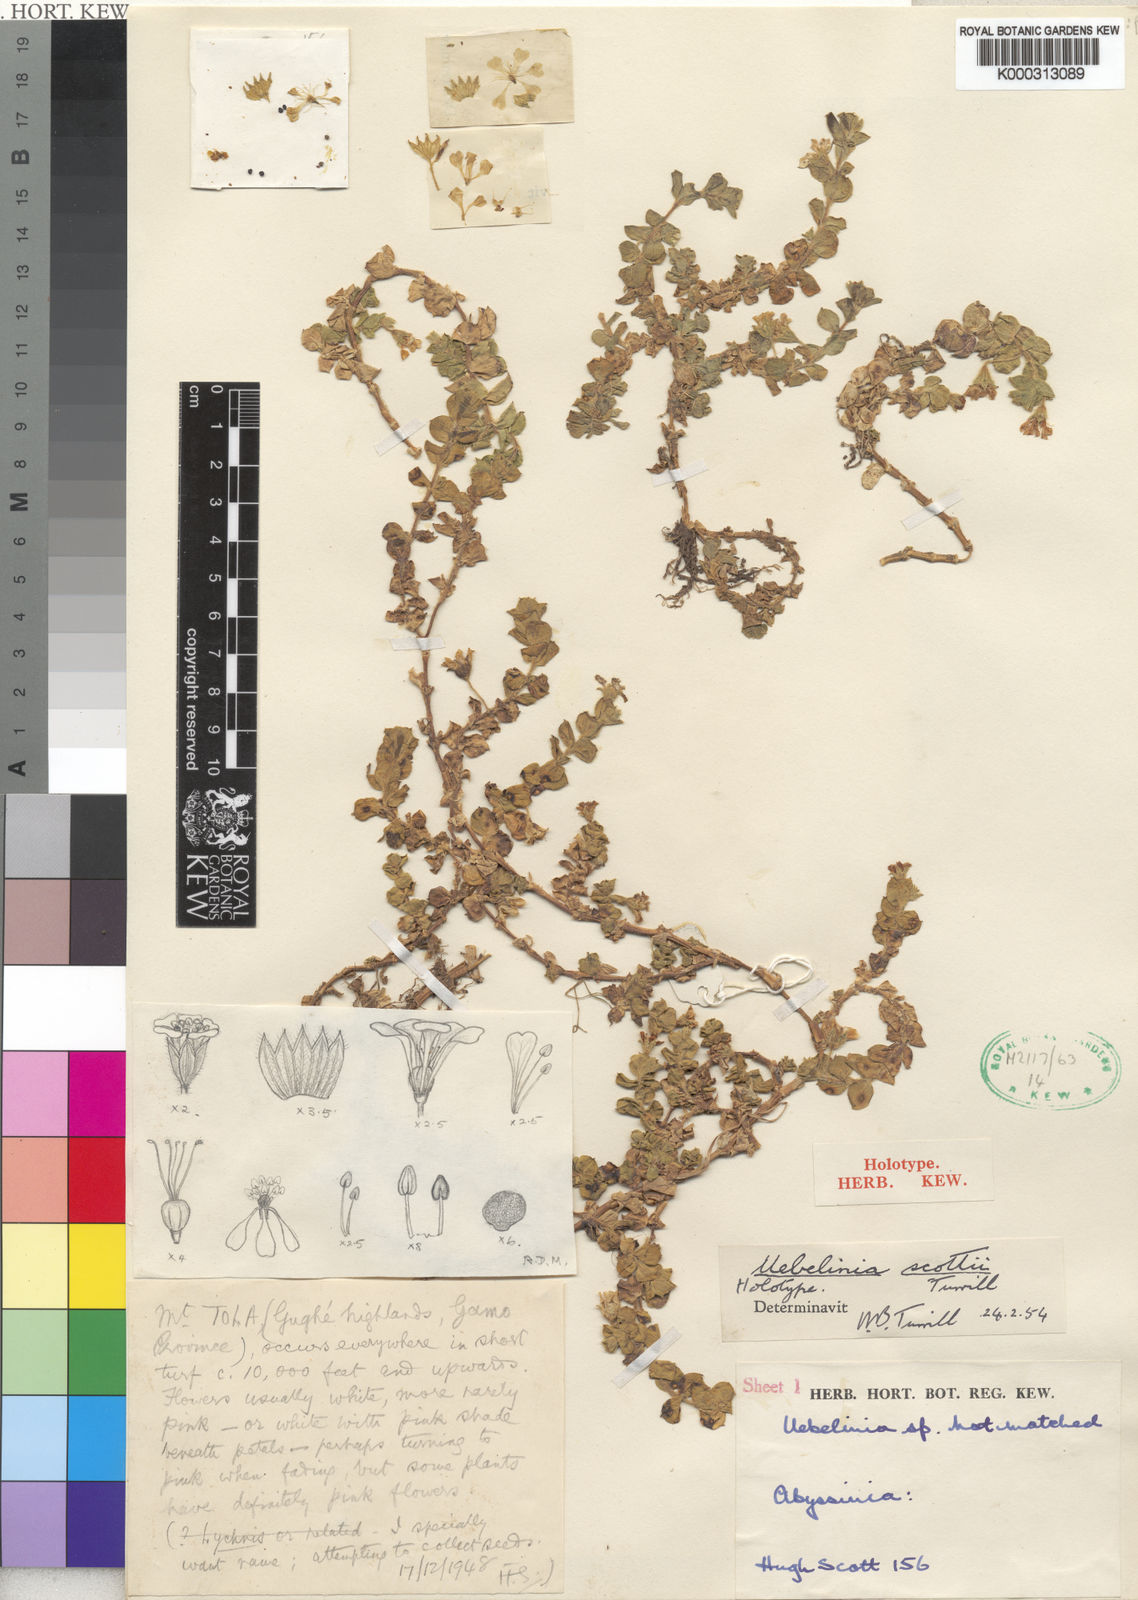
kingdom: Plantae
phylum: Tracheophyta
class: Magnoliopsida
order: Caryophyllales
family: Caryophyllaceae
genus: Silene
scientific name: Silene scottii
